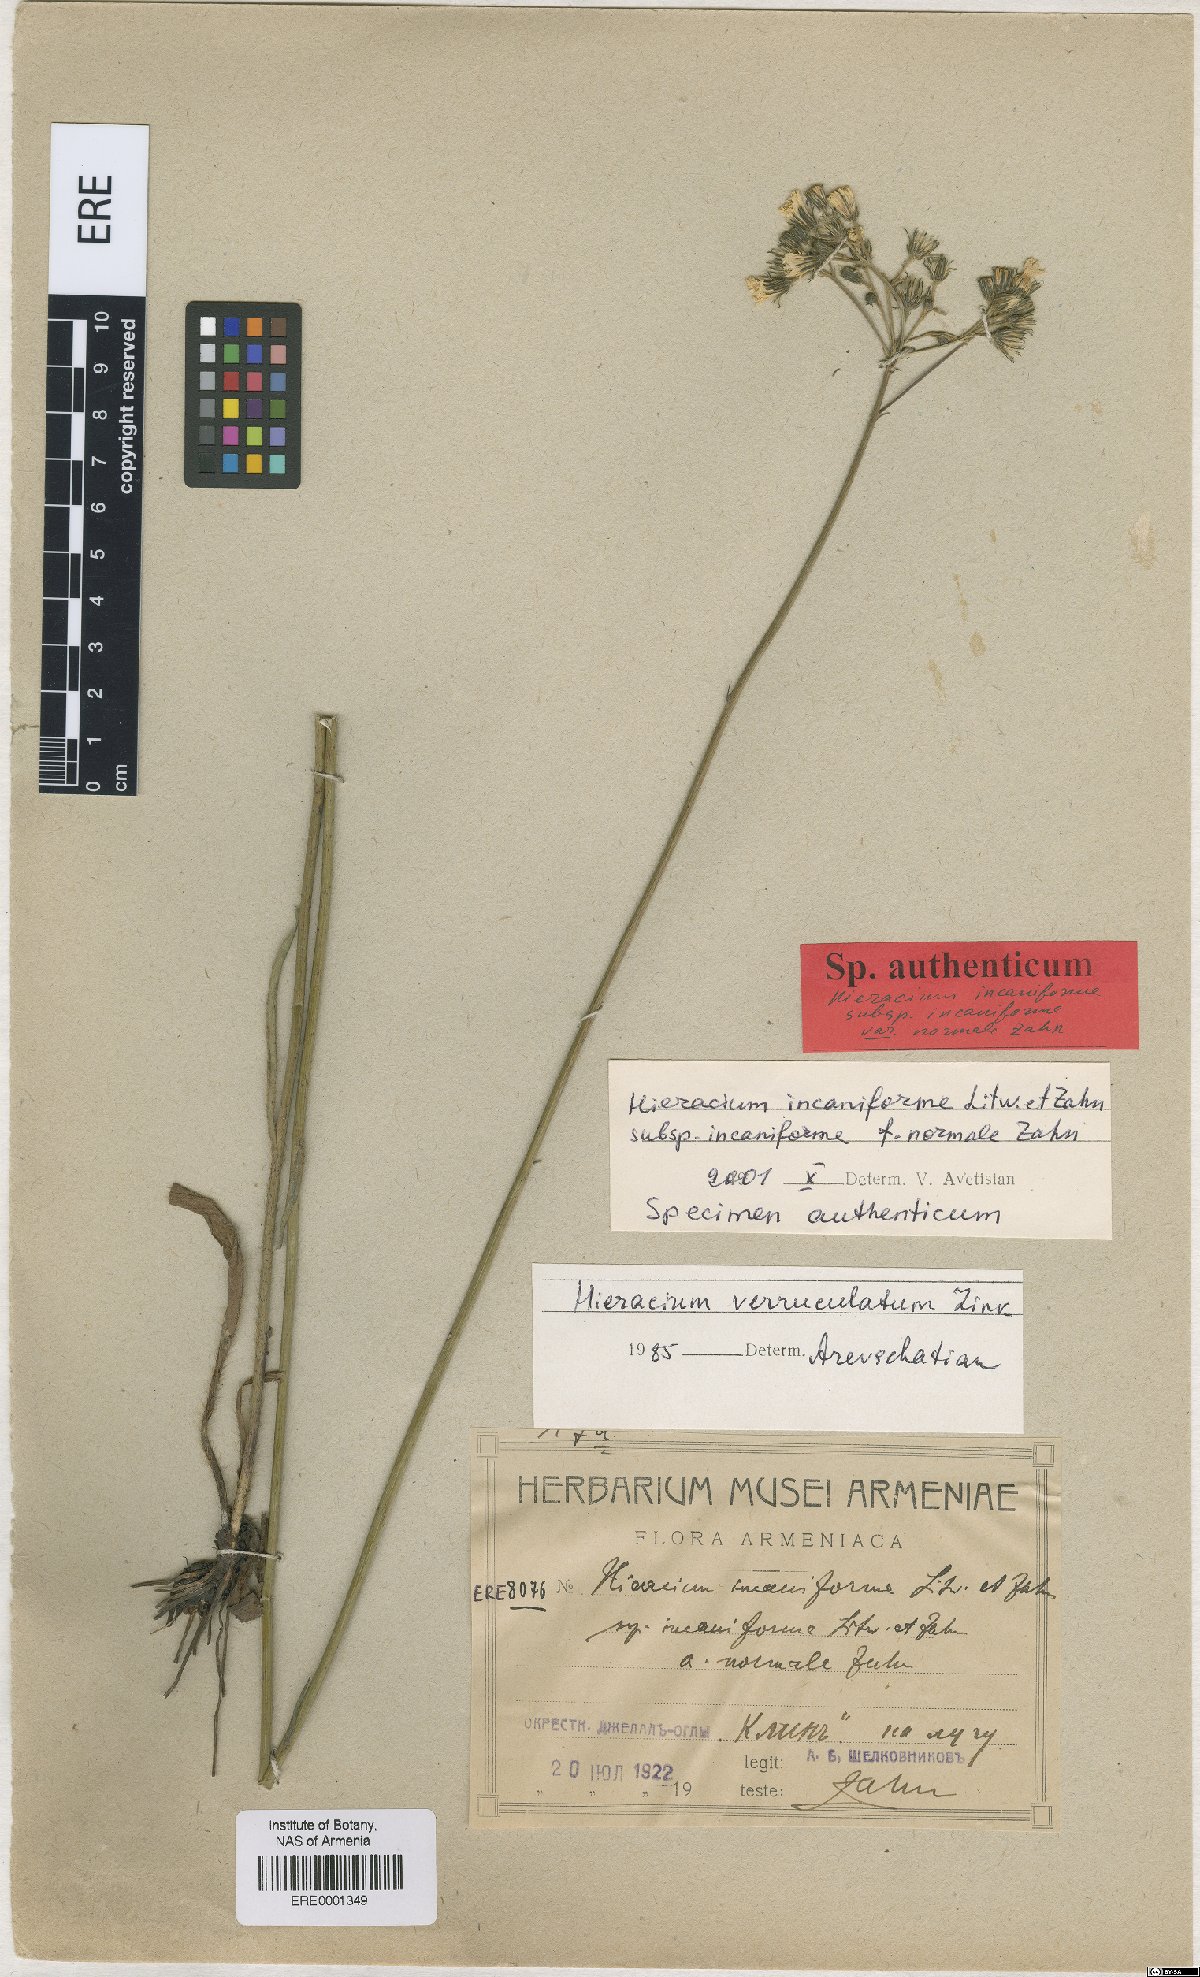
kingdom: Plantae
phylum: Tracheophyta
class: Magnoliopsida
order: Asterales
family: Asteraceae
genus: Pilosella
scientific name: Pilosella sintenisii
